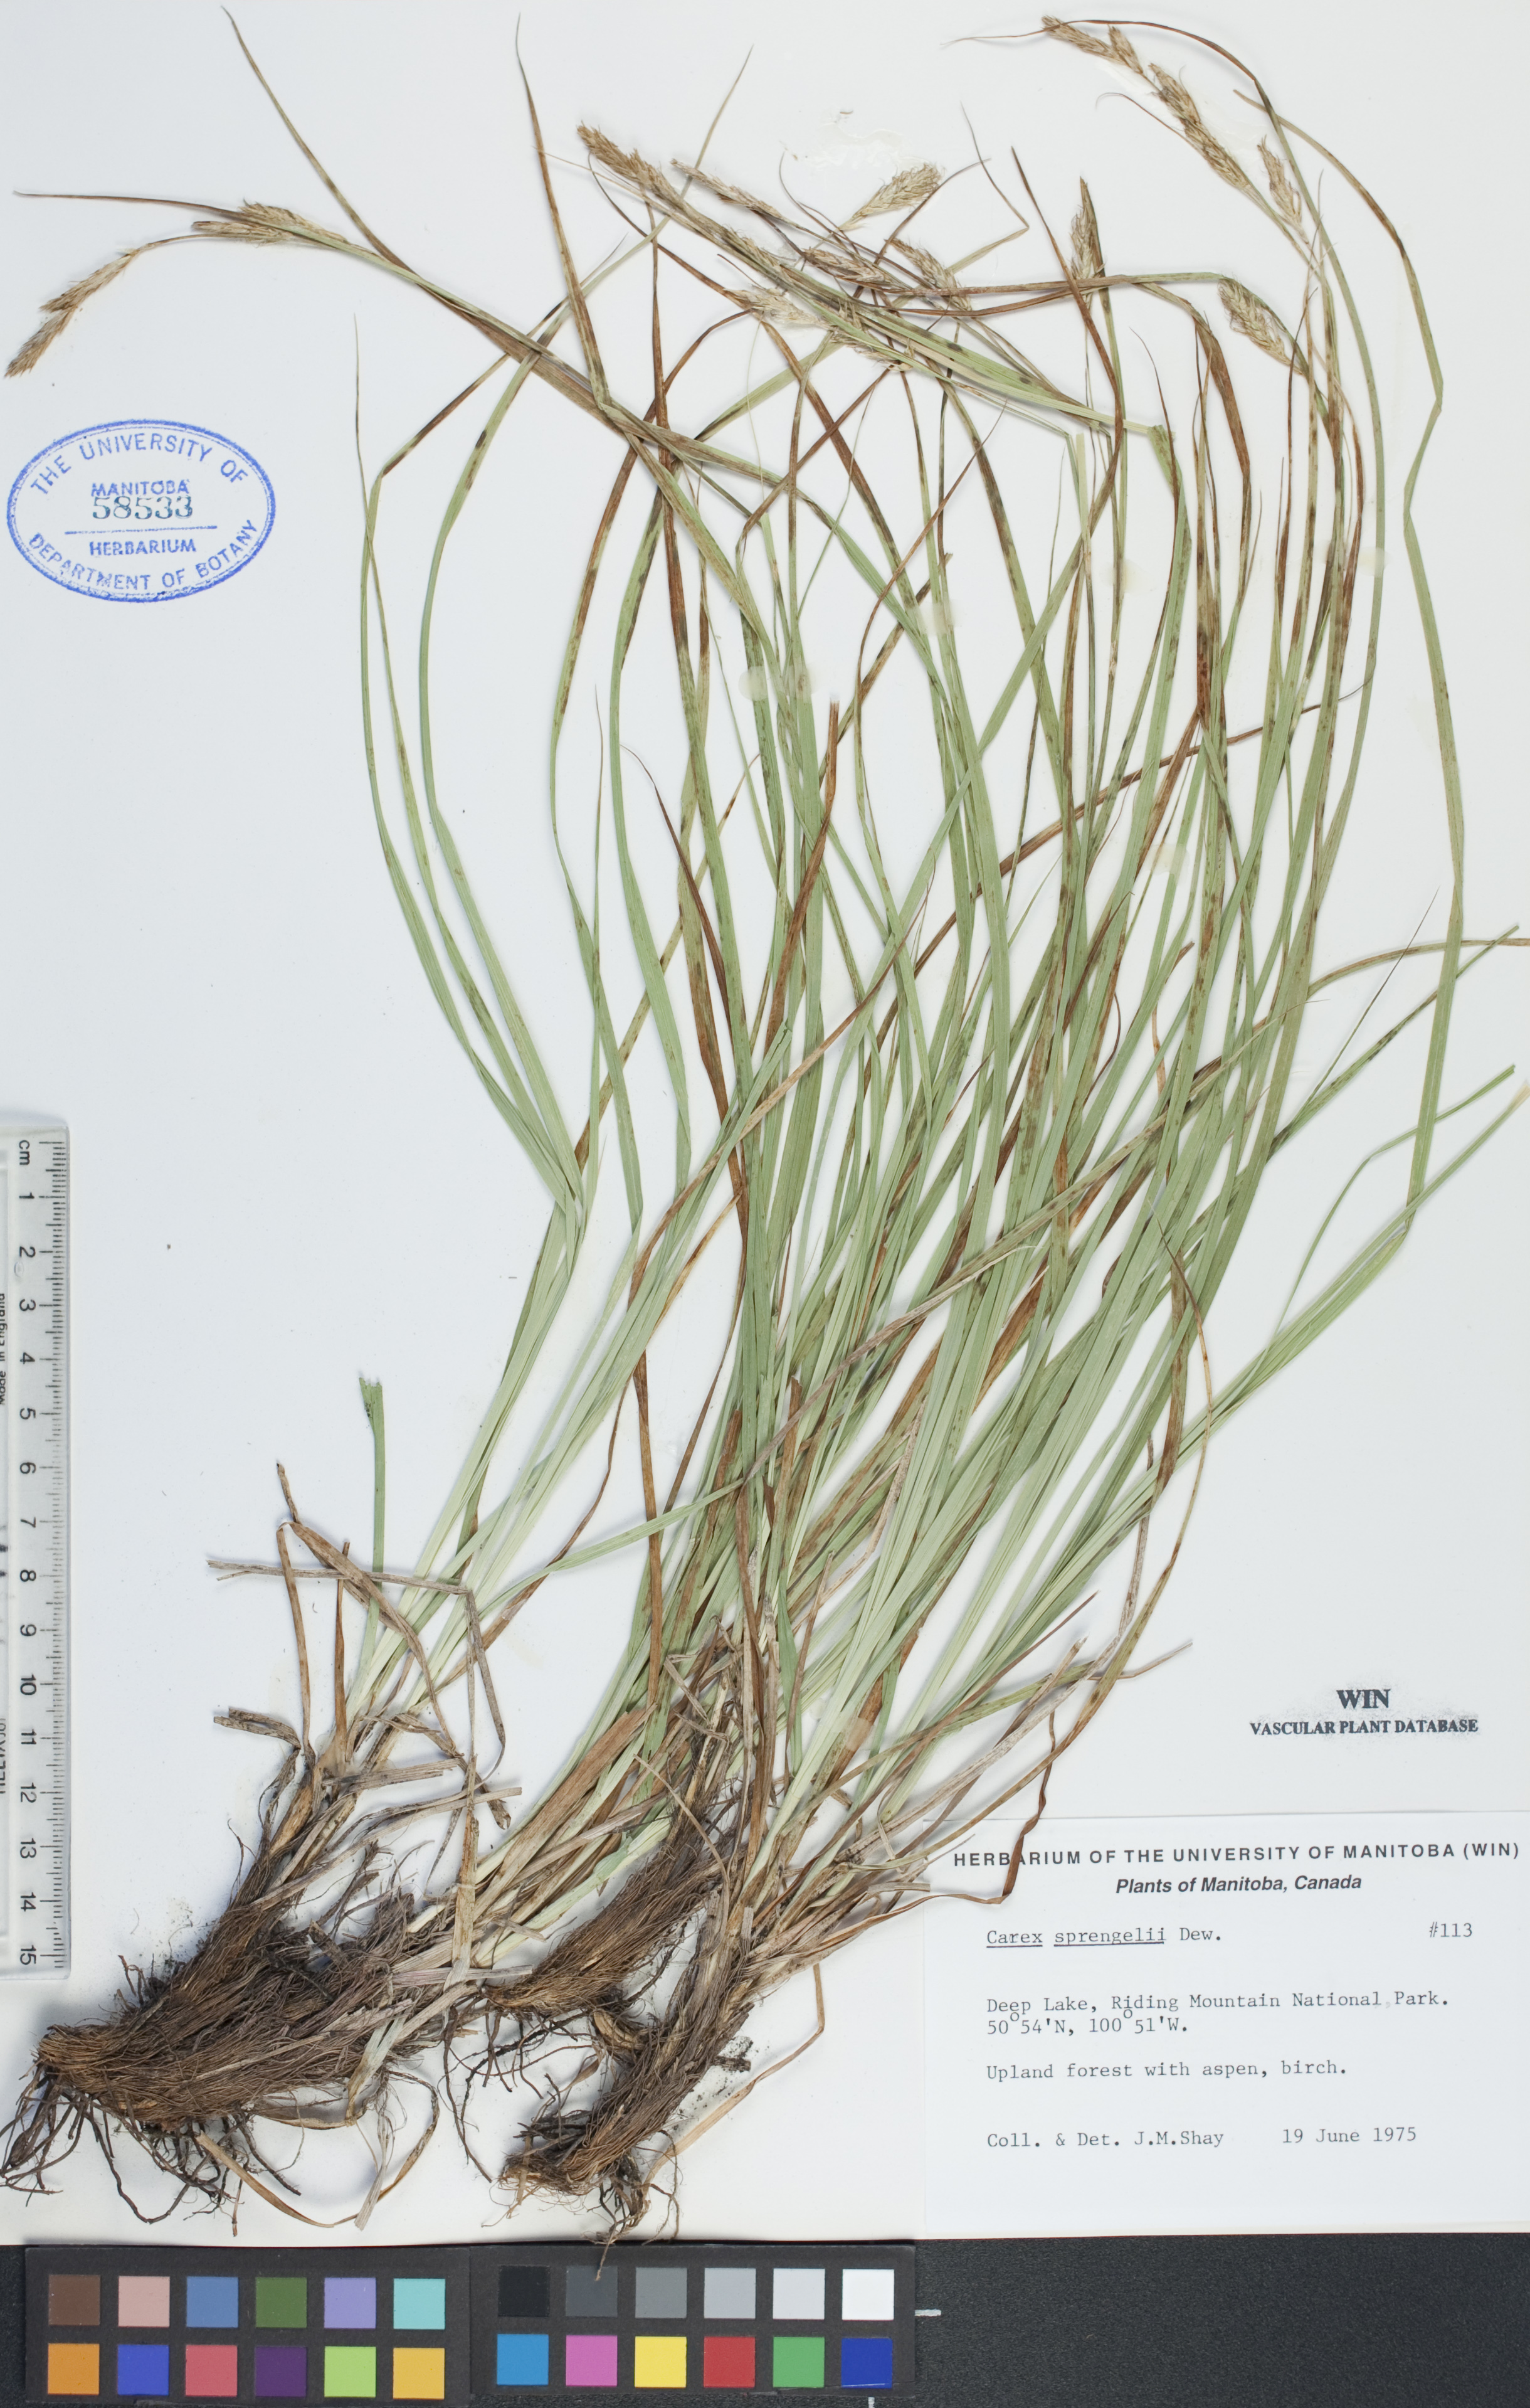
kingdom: Plantae
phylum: Tracheophyta
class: Liliopsida
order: Poales
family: Cyperaceae
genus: Carex
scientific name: Carex sprengelii
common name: Long-beaked sedge
